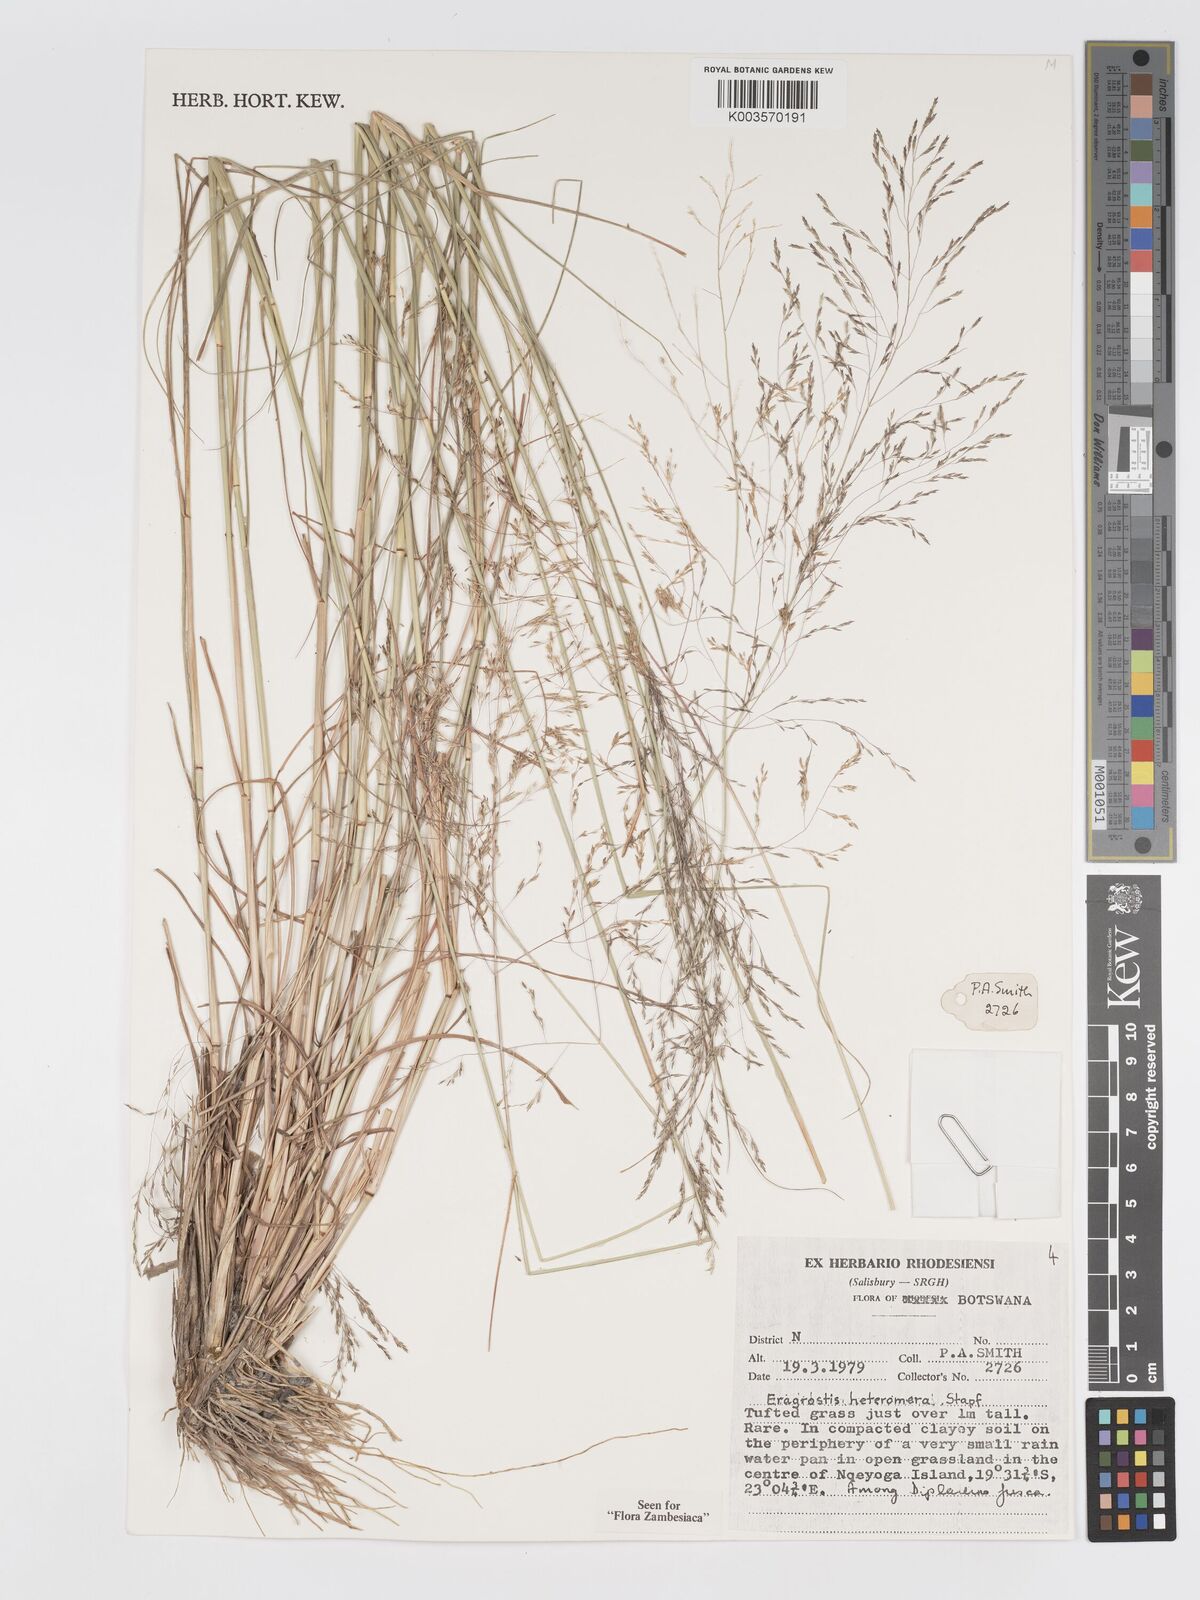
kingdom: Plantae
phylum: Tracheophyta
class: Liliopsida
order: Poales
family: Poaceae
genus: Eragrostis
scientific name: Eragrostis heteromera
